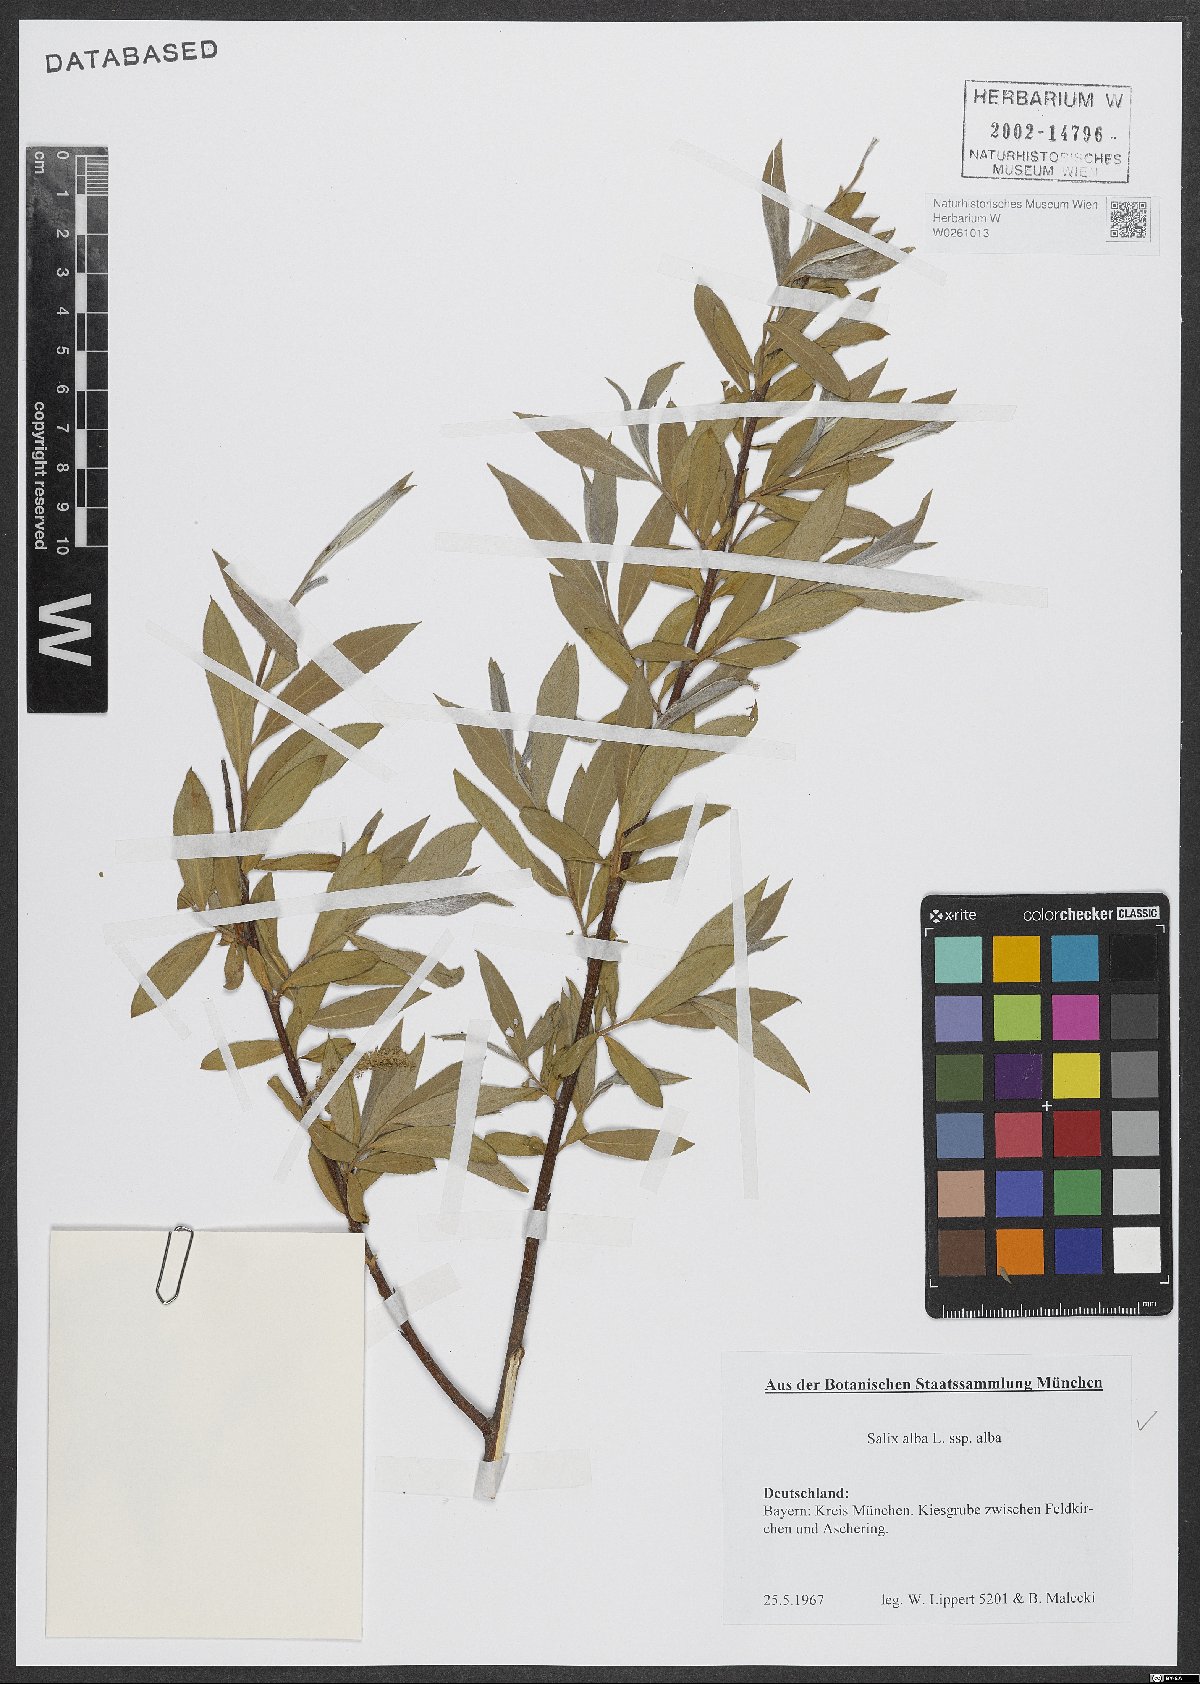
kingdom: Plantae
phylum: Tracheophyta
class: Magnoliopsida
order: Malpighiales
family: Salicaceae
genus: Salix
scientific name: Salix alba
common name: White willow
